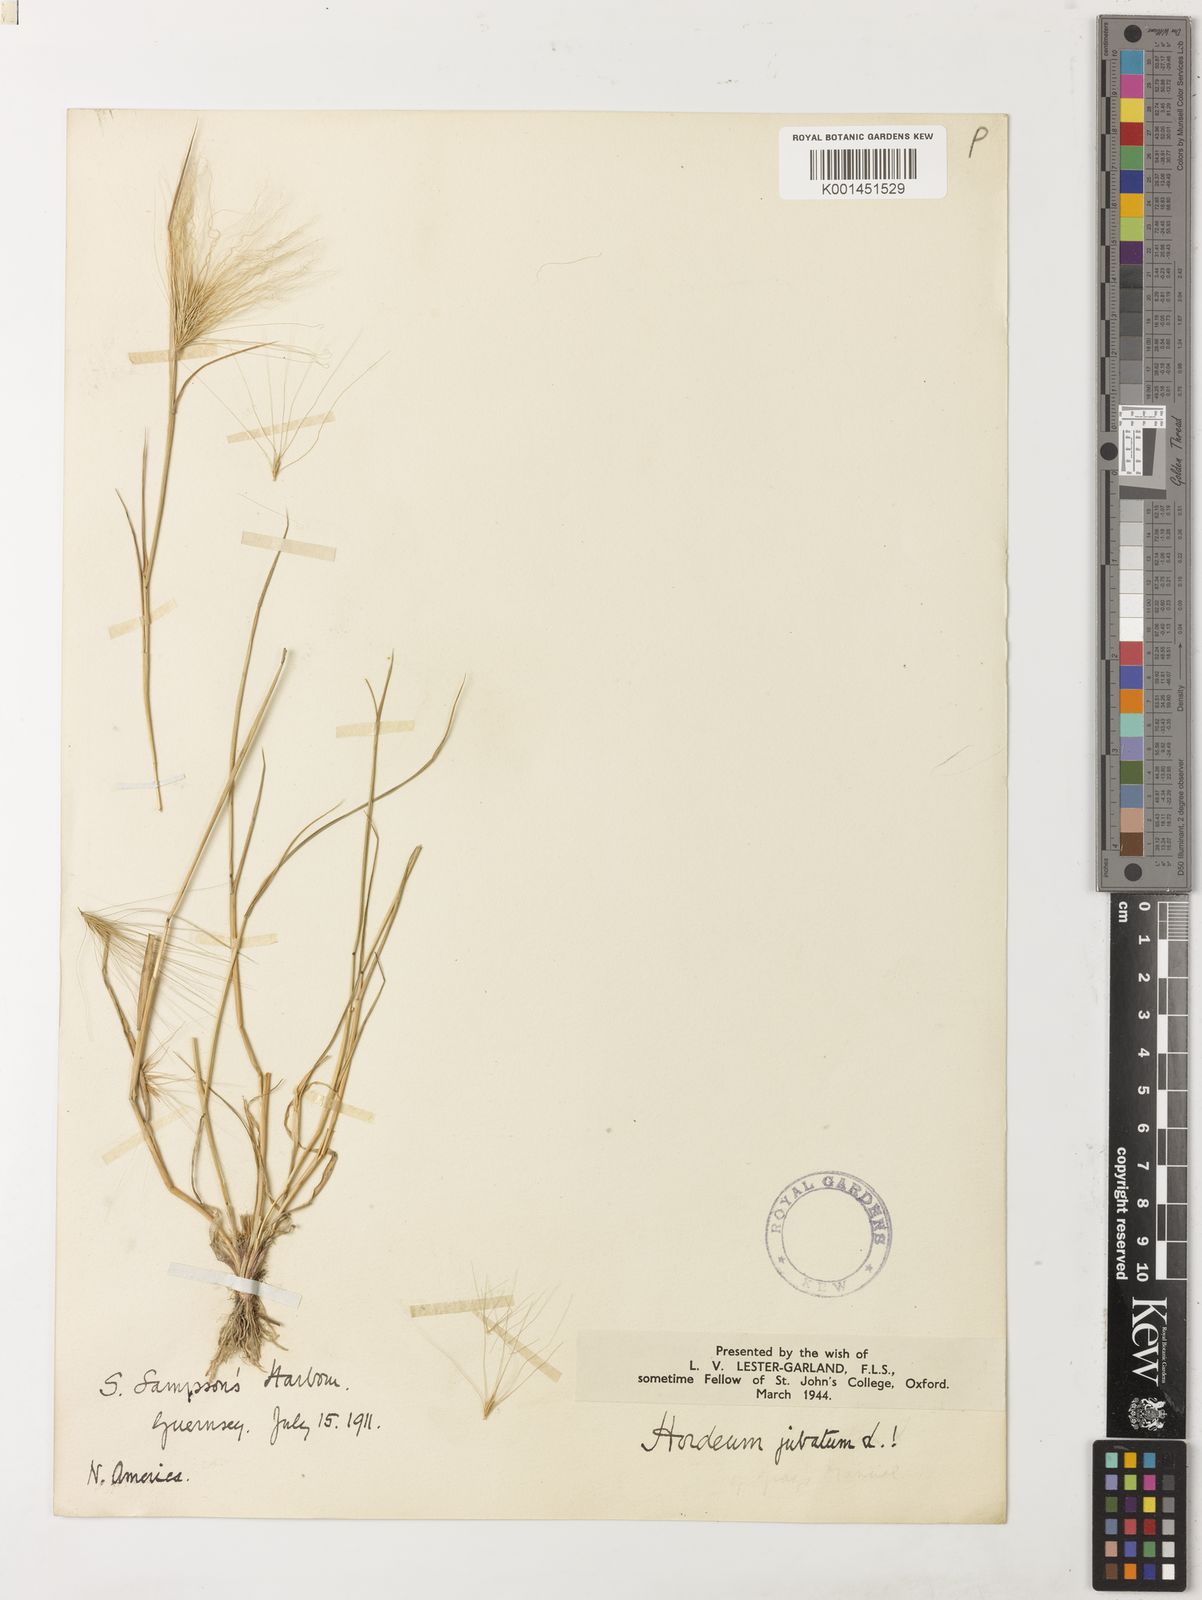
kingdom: Plantae
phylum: Tracheophyta
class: Liliopsida
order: Poales
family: Poaceae
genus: Hordeum
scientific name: Hordeum jubatum
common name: Foxtail barley
